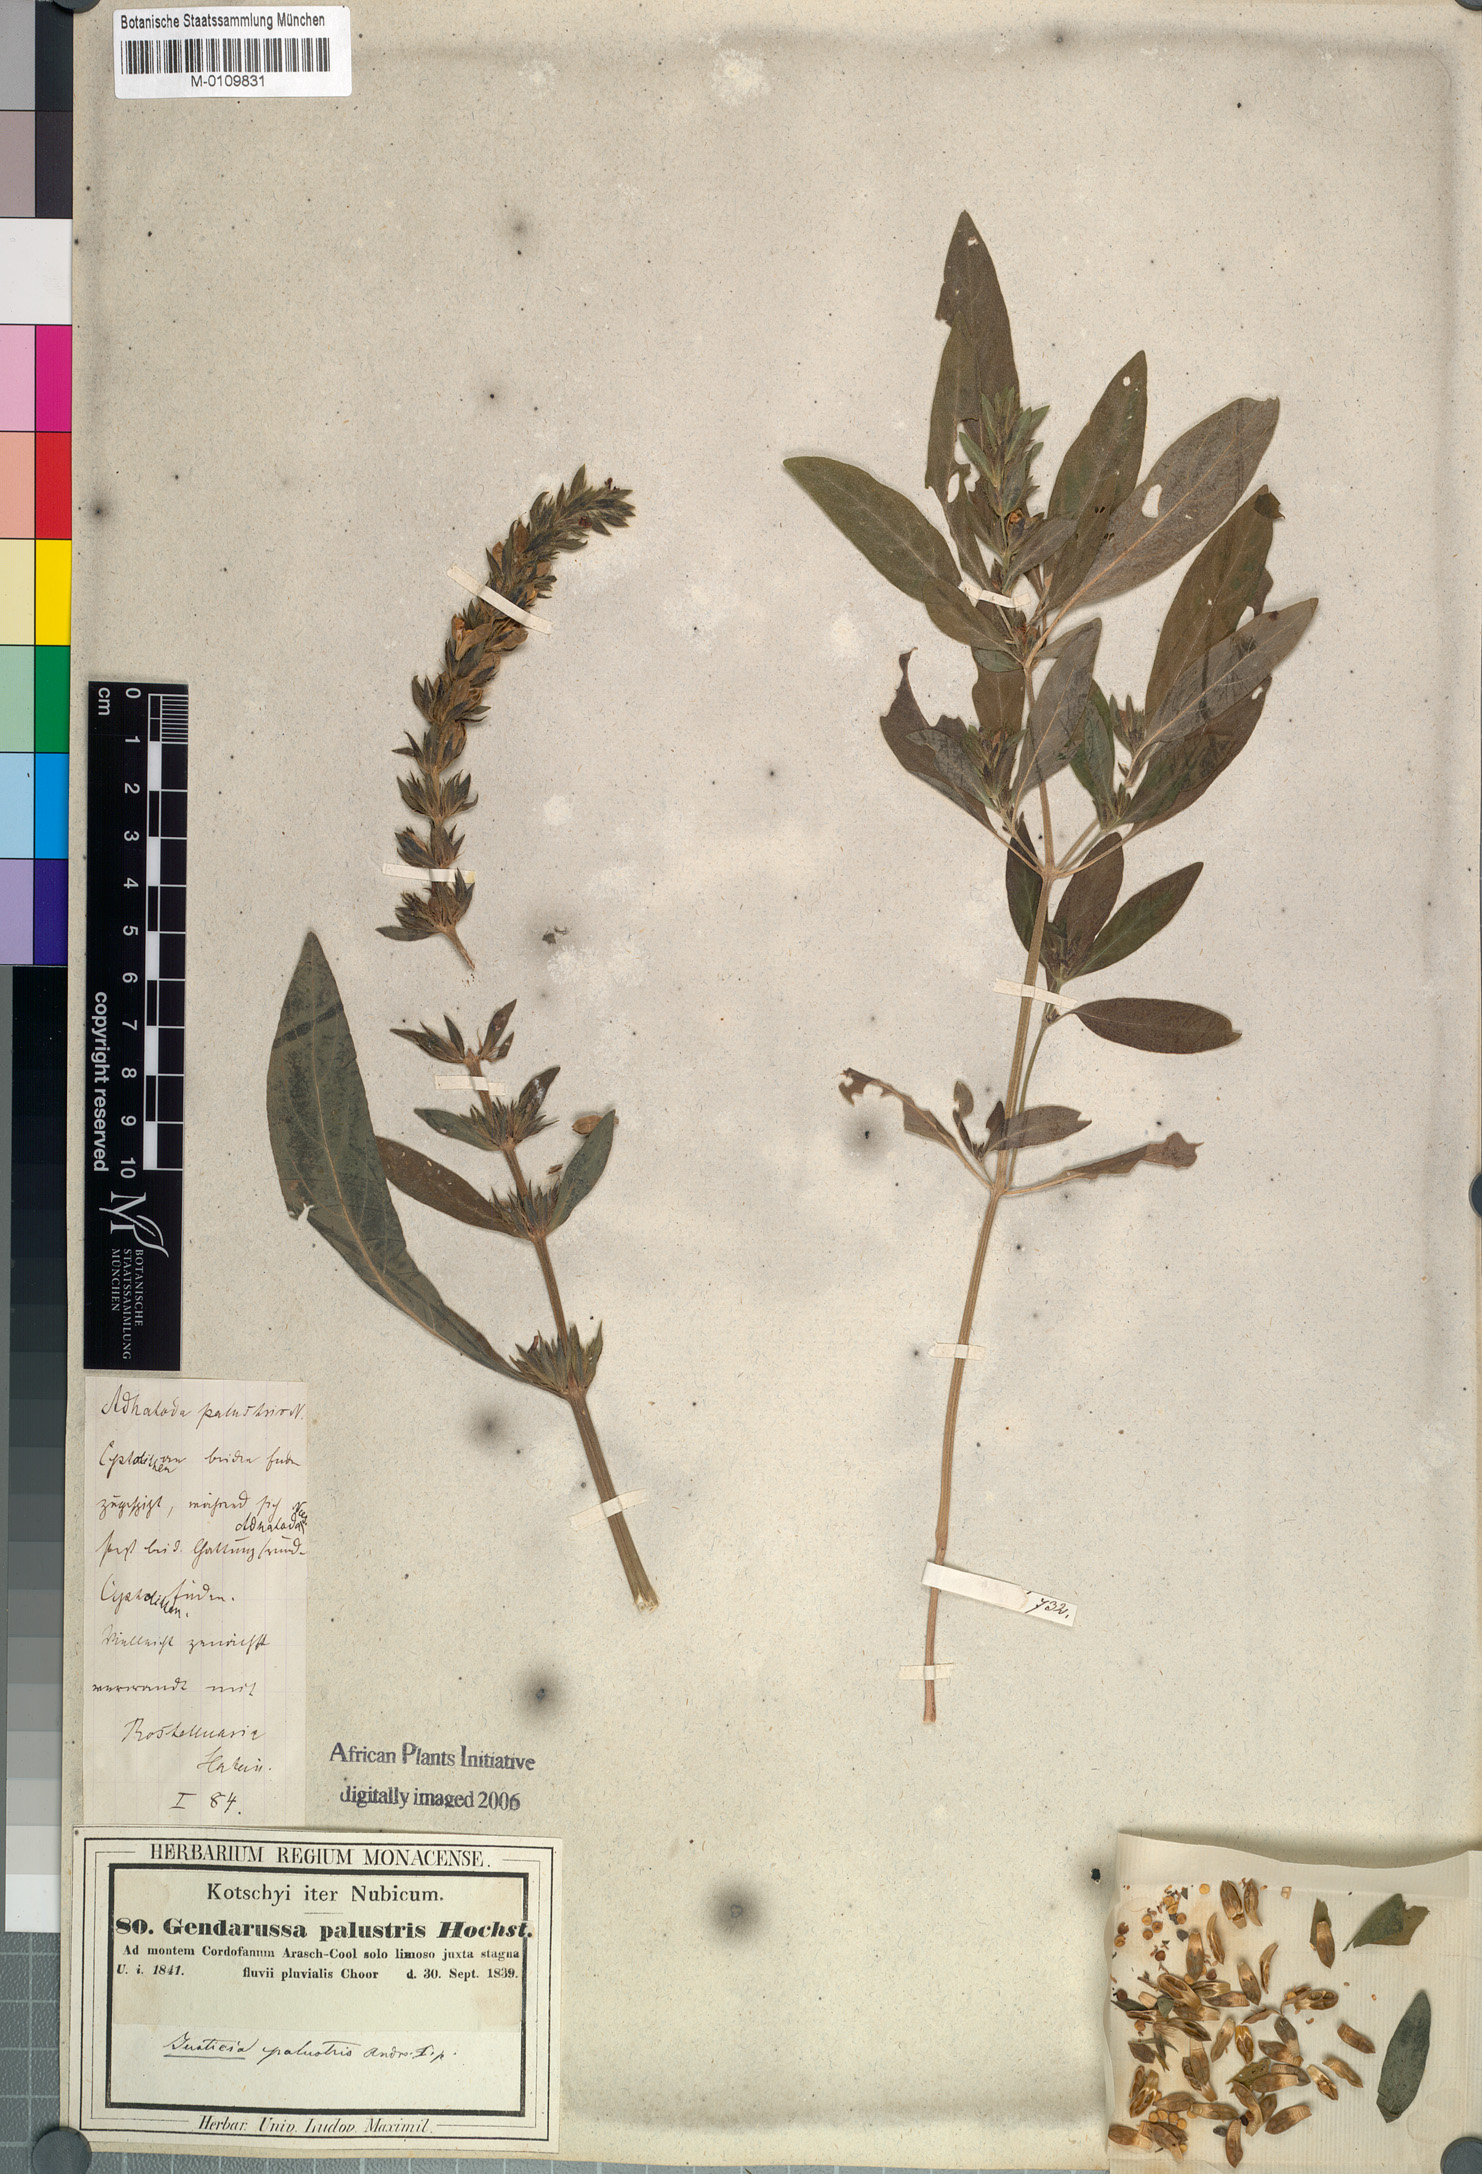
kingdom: Plantae
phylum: Tracheophyta
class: Magnoliopsida
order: Lamiales
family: Acanthaceae
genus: Justicia
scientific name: Justicia flava
